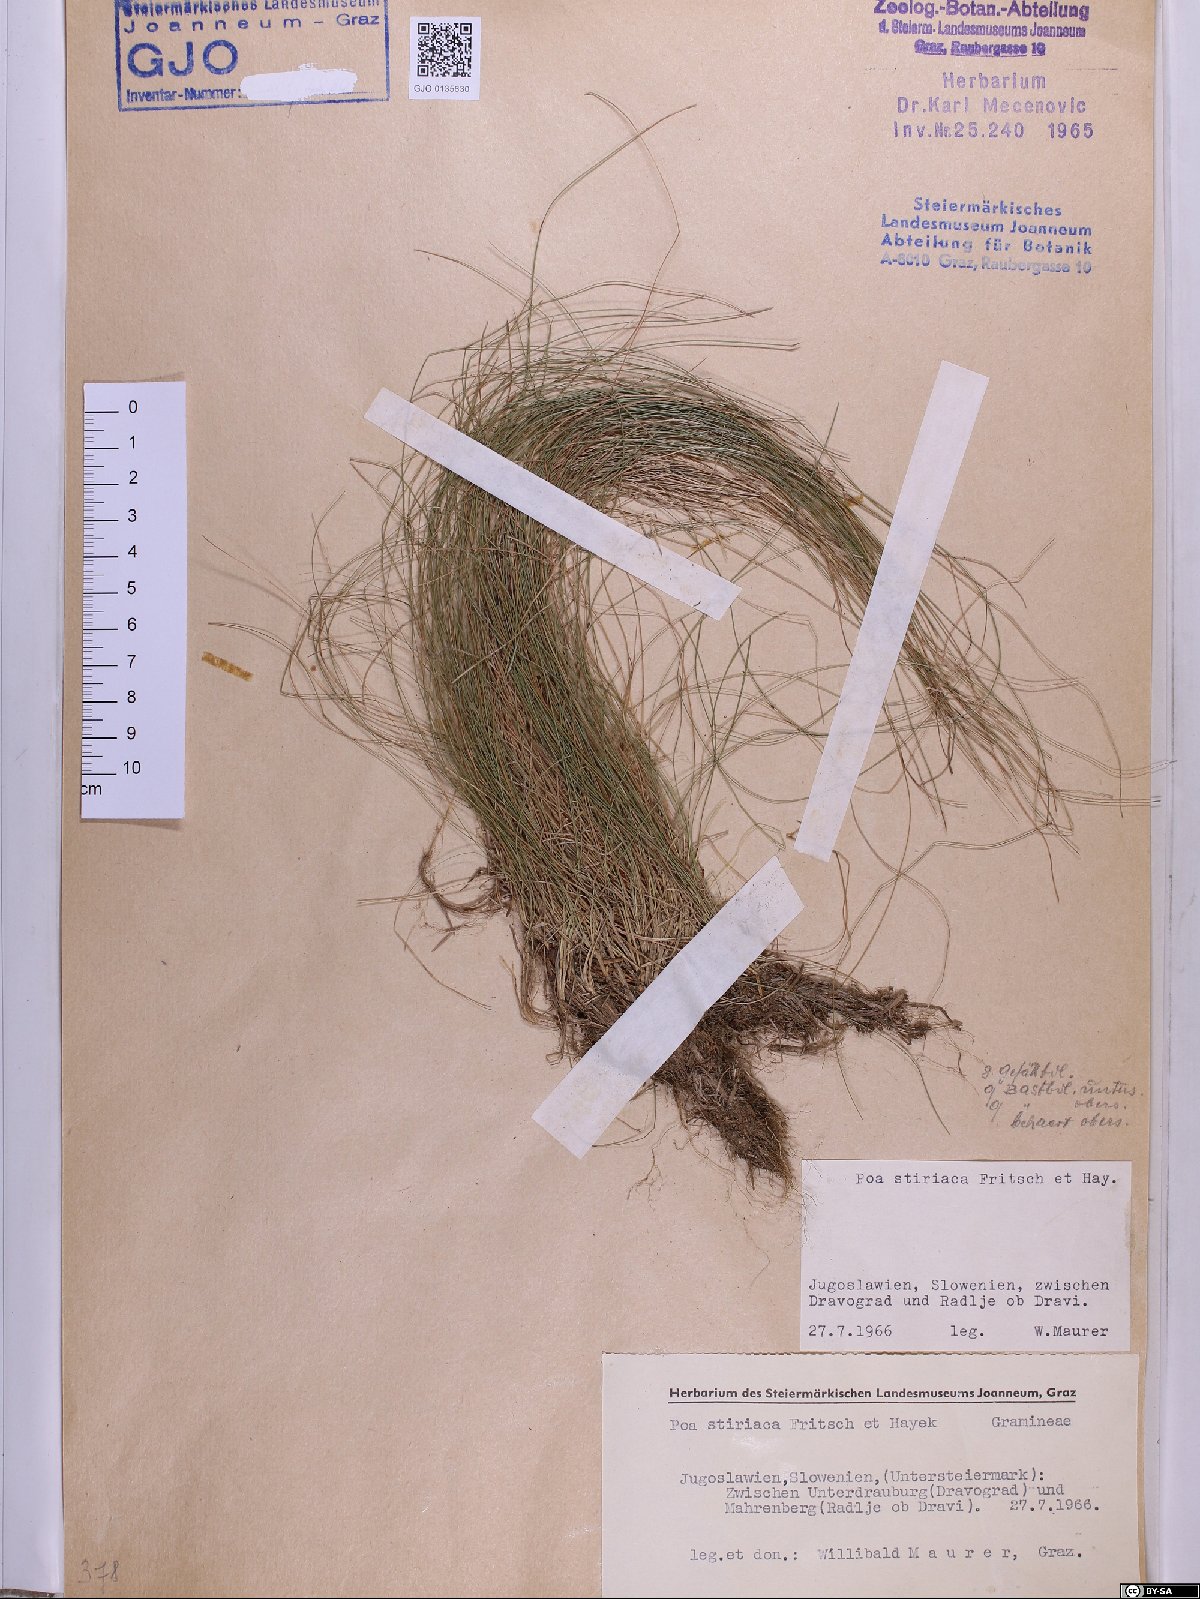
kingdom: Plantae
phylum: Tracheophyta
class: Liliopsida
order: Poales
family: Poaceae
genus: Poa
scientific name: Poa stiriaca
